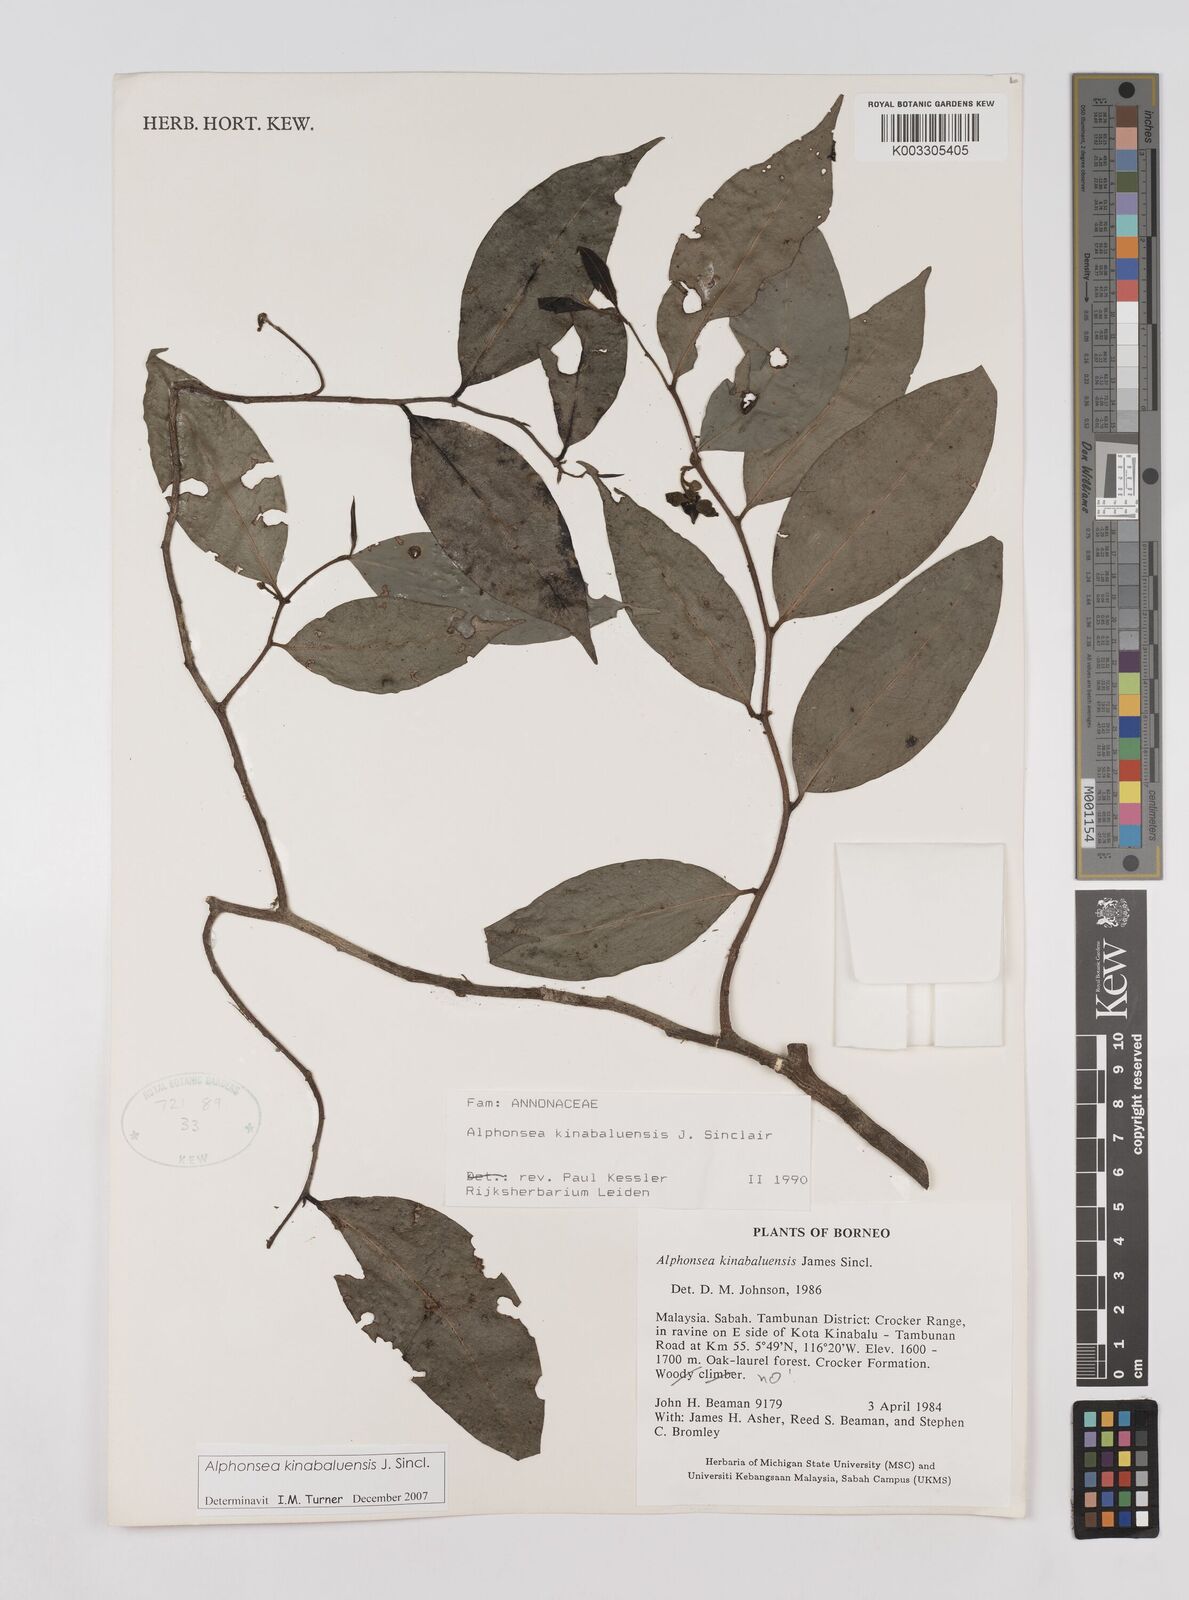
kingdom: Plantae
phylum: Tracheophyta
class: Magnoliopsida
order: Magnoliales
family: Annonaceae
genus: Alphonsea
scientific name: Alphonsea kinabaluensis
